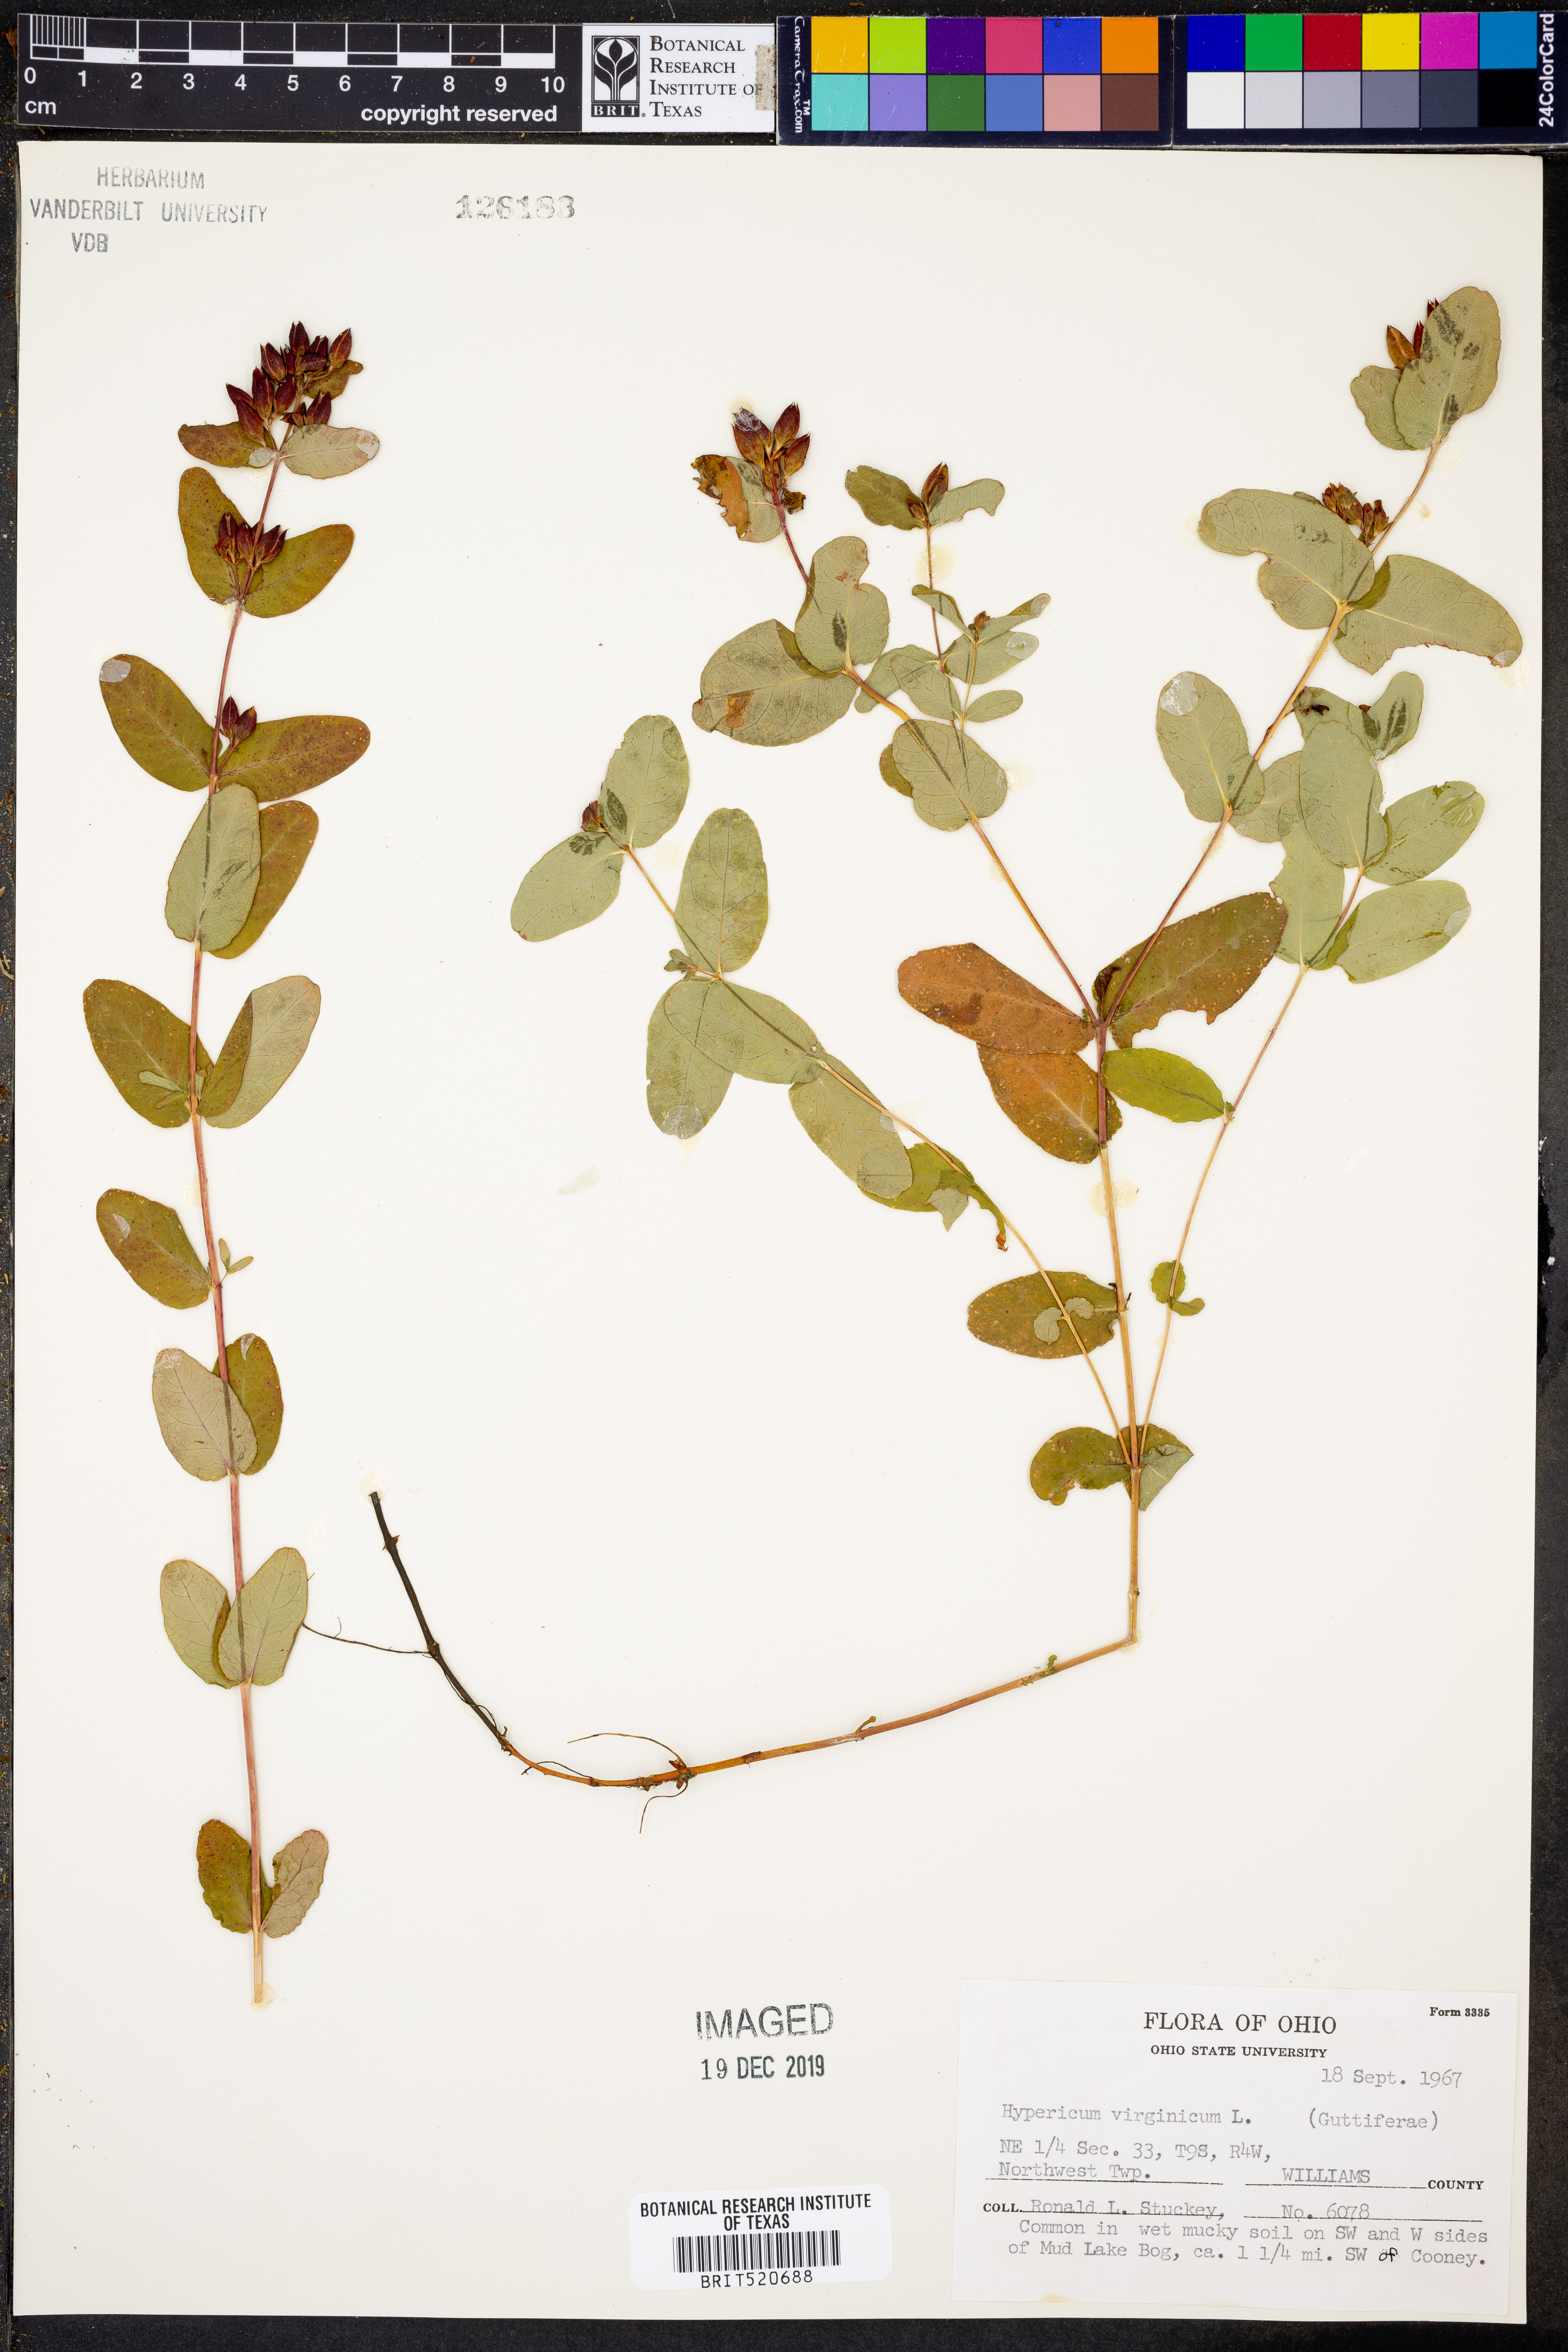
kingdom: Plantae
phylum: Tracheophyta
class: Magnoliopsida
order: Malpighiales
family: Hypericaceae
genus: Triadenum
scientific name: Triadenum virginicum
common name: Marsh st. john's-wort
